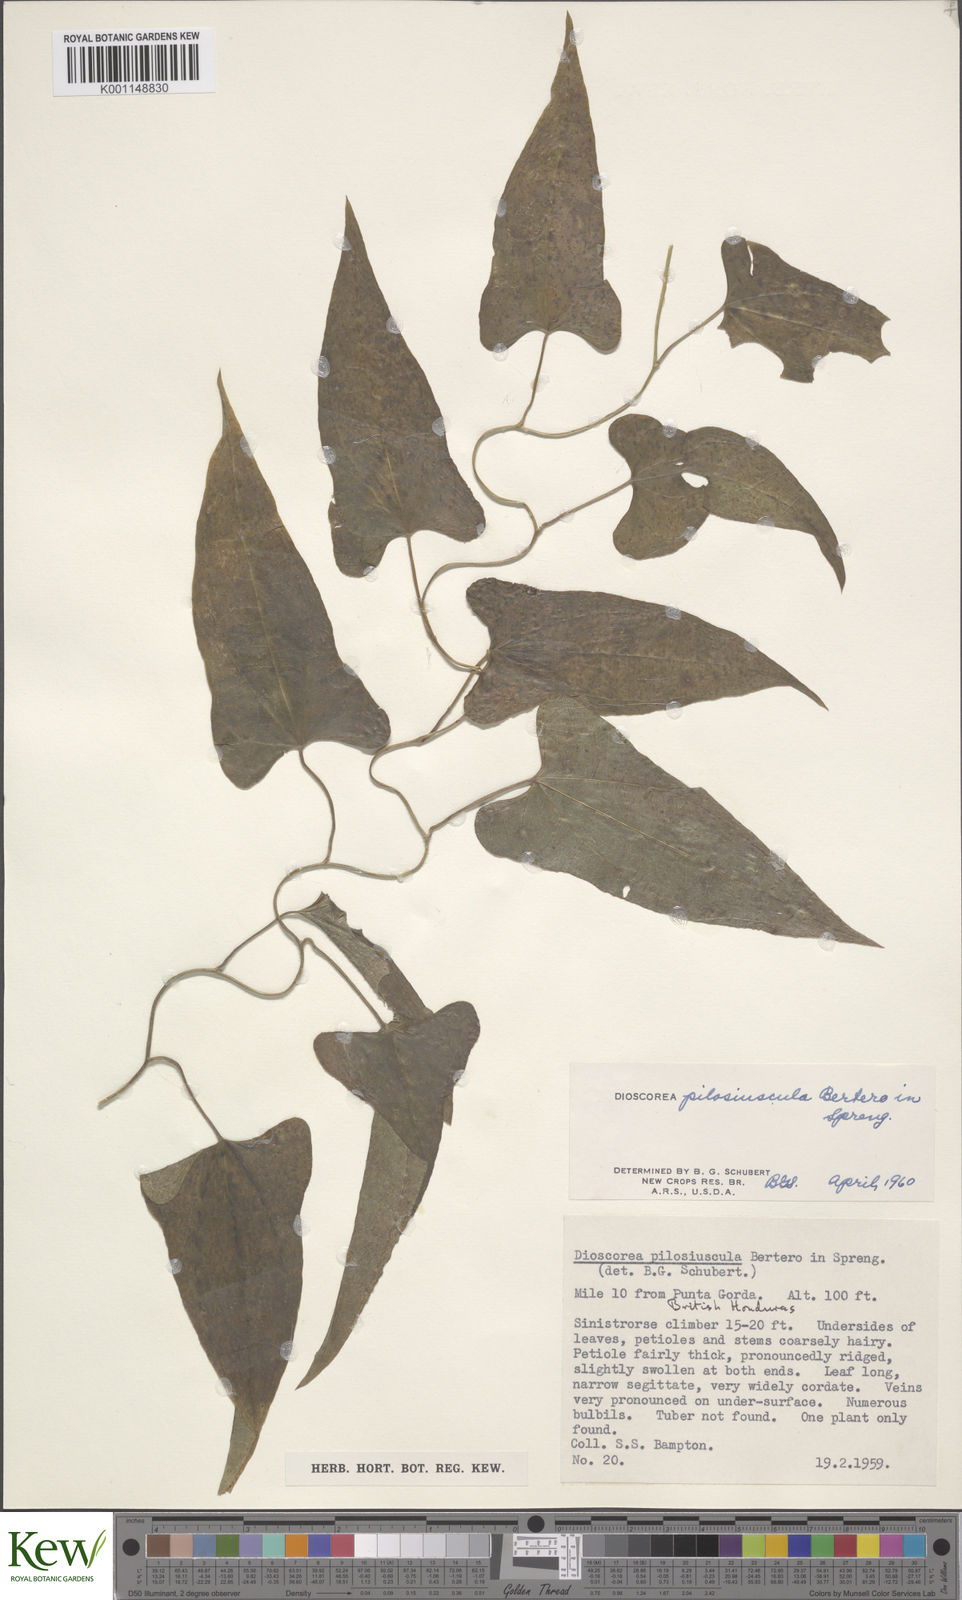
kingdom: Plantae
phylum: Tracheophyta
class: Liliopsida
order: Dioscoreales
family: Dioscoreaceae
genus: Dioscorea
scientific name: Dioscorea pilosiuscula
